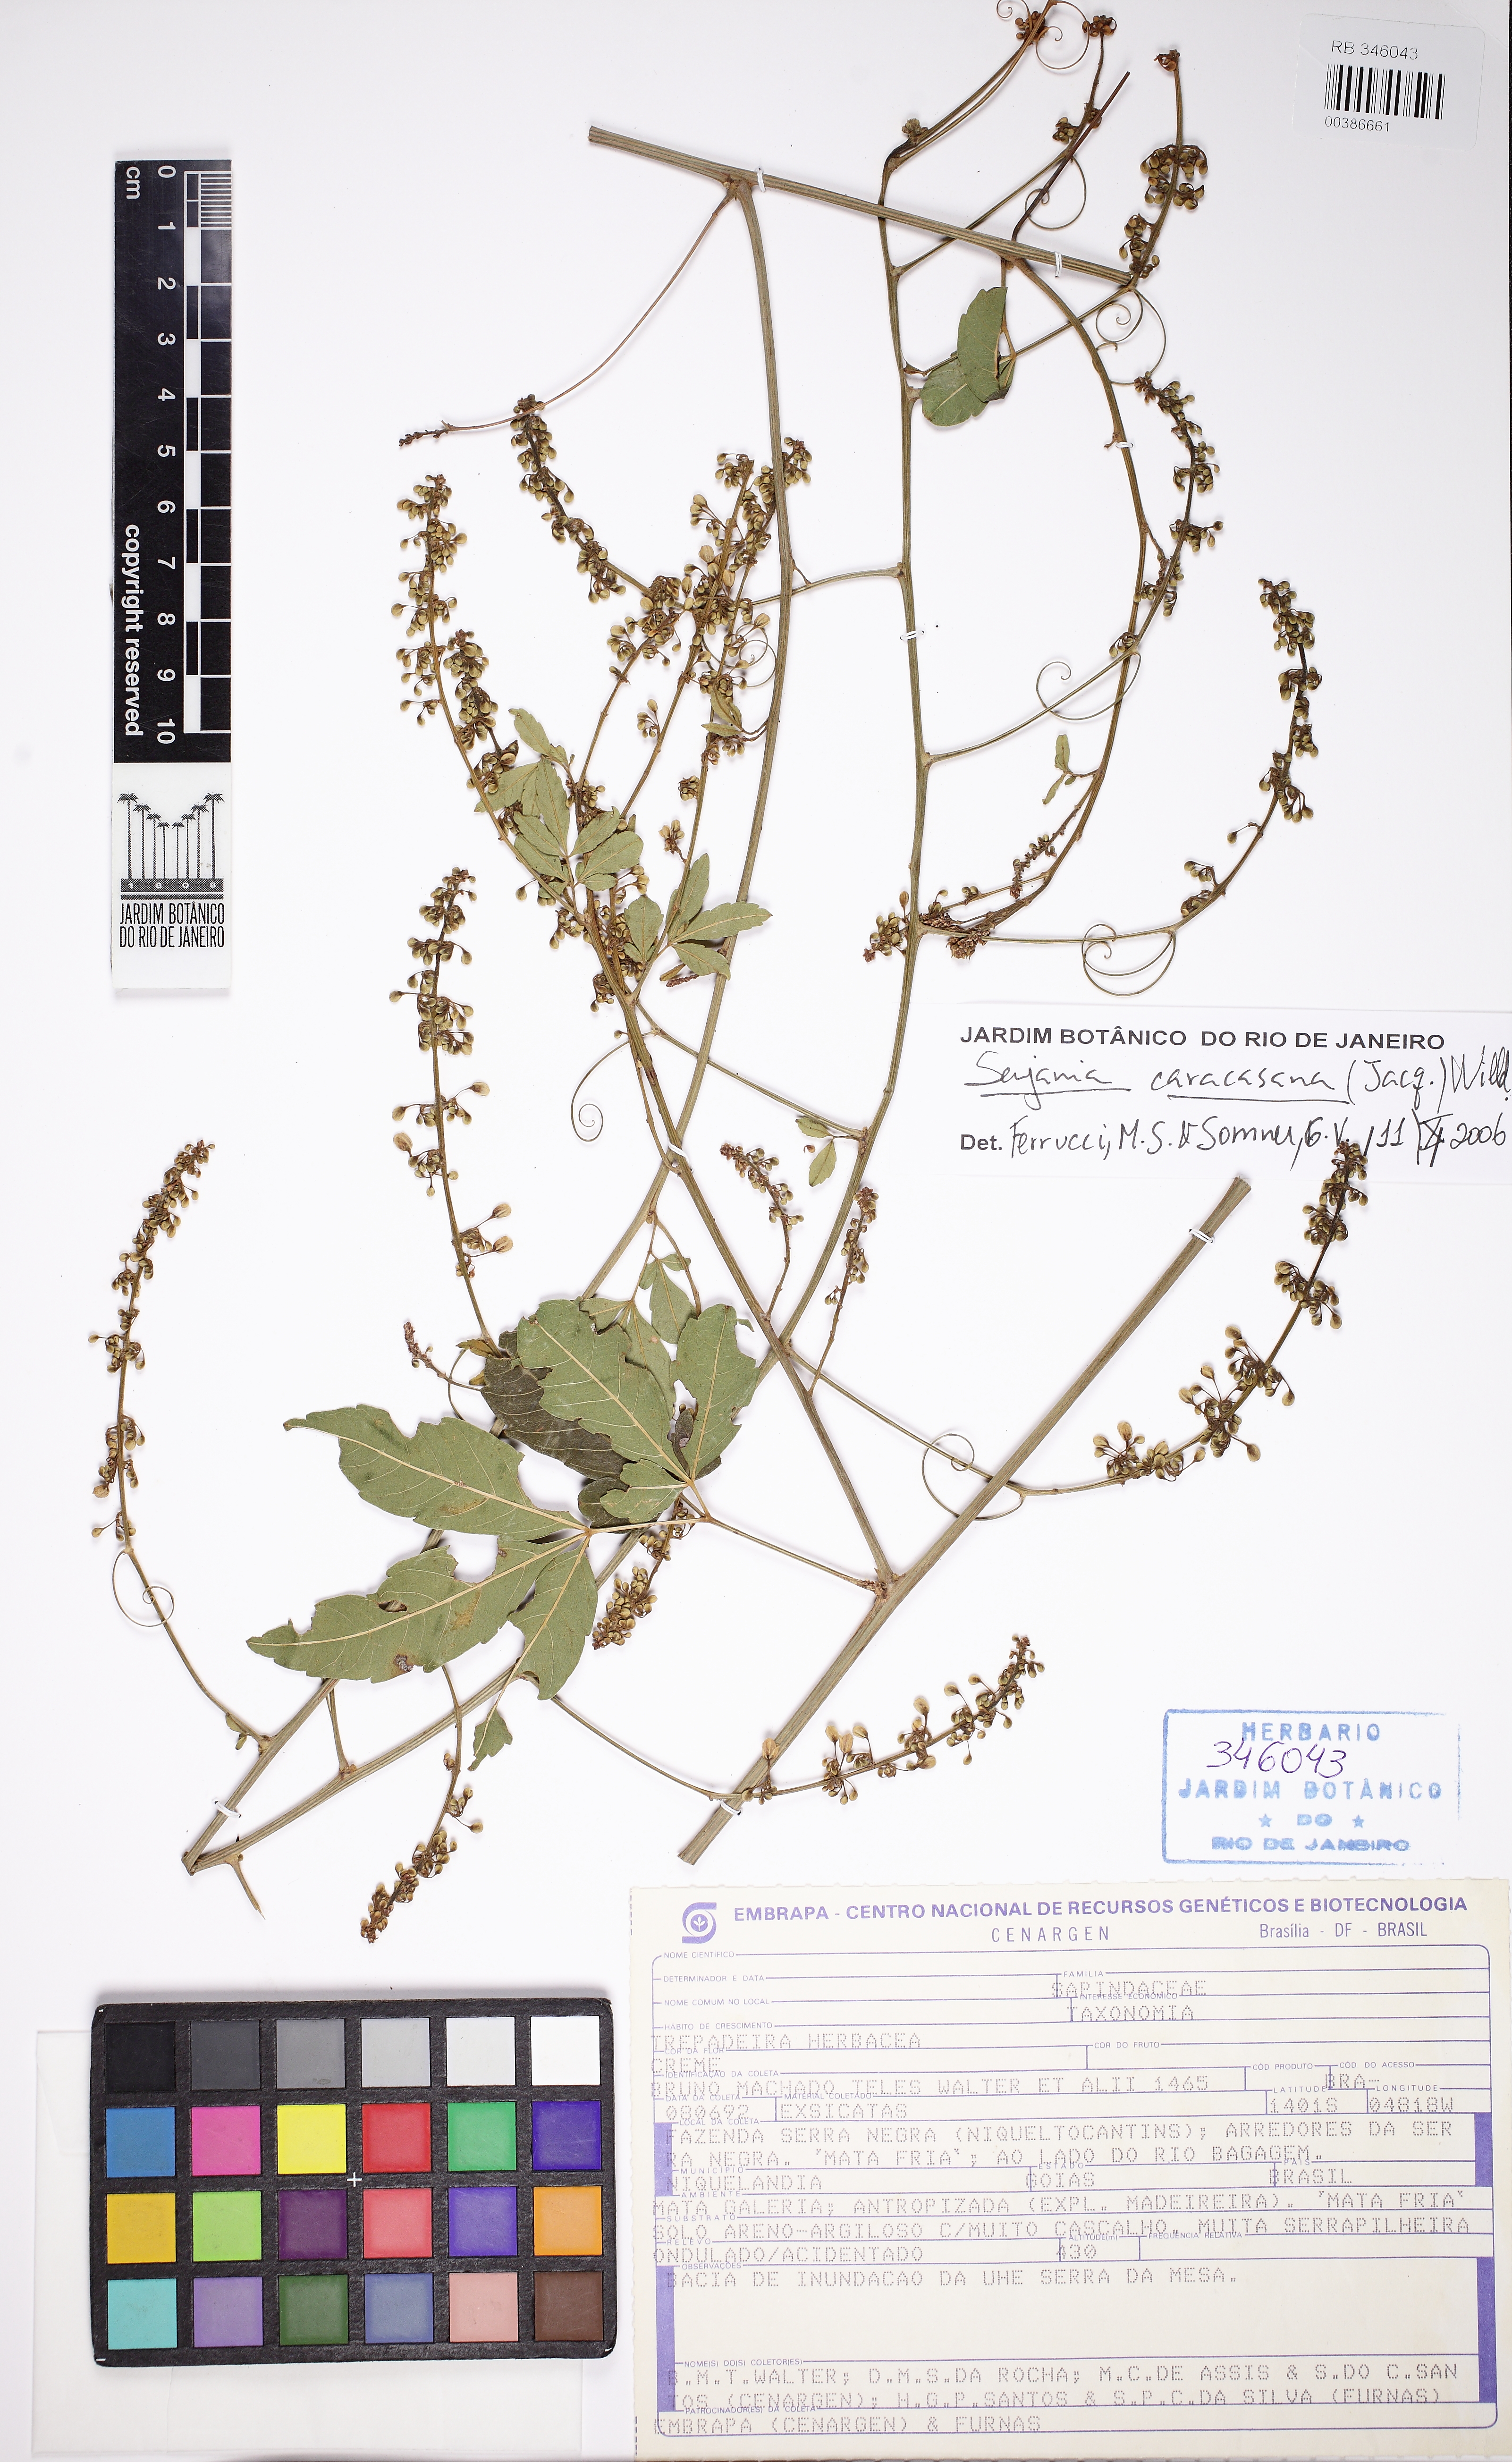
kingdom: Plantae
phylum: Tracheophyta
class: Magnoliopsida
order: Sapindales
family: Sapindaceae
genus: Serjania
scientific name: Serjania caracasana
